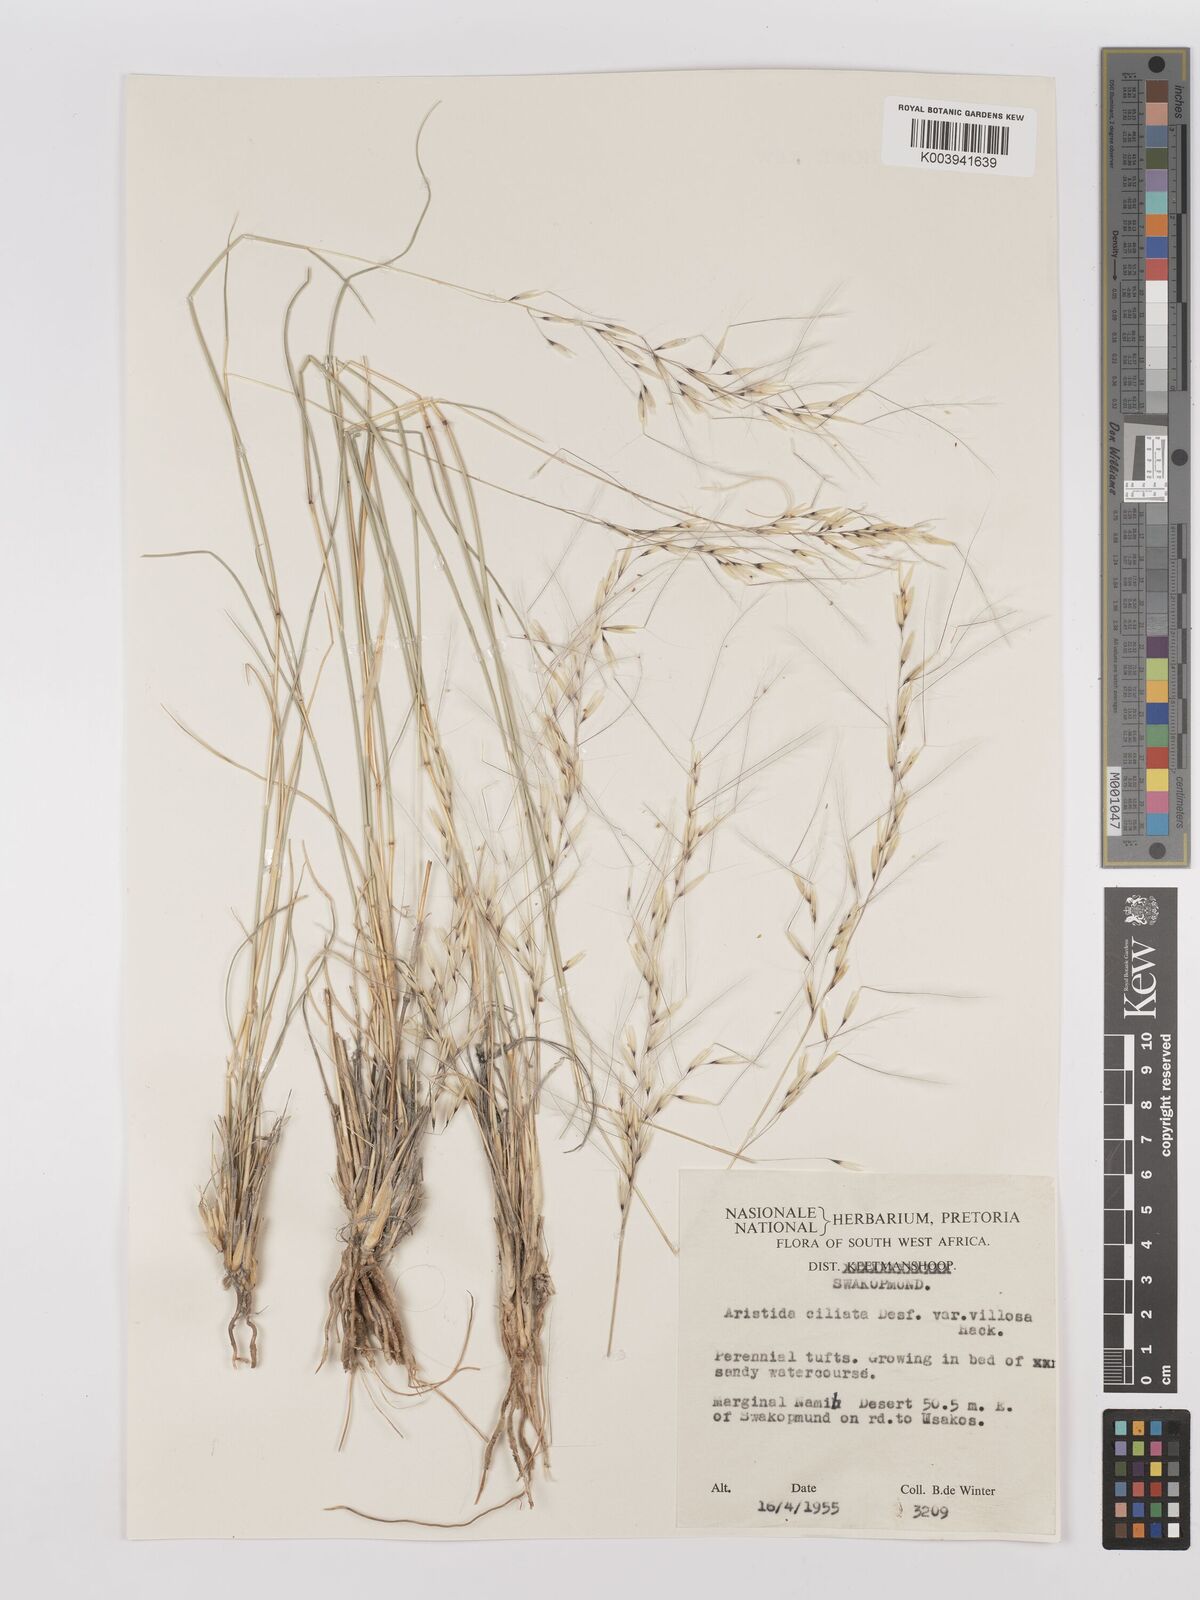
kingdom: Plantae
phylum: Tracheophyta
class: Liliopsida
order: Poales
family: Poaceae
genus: Stipagrostis
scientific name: Stipagrostis ciliata
